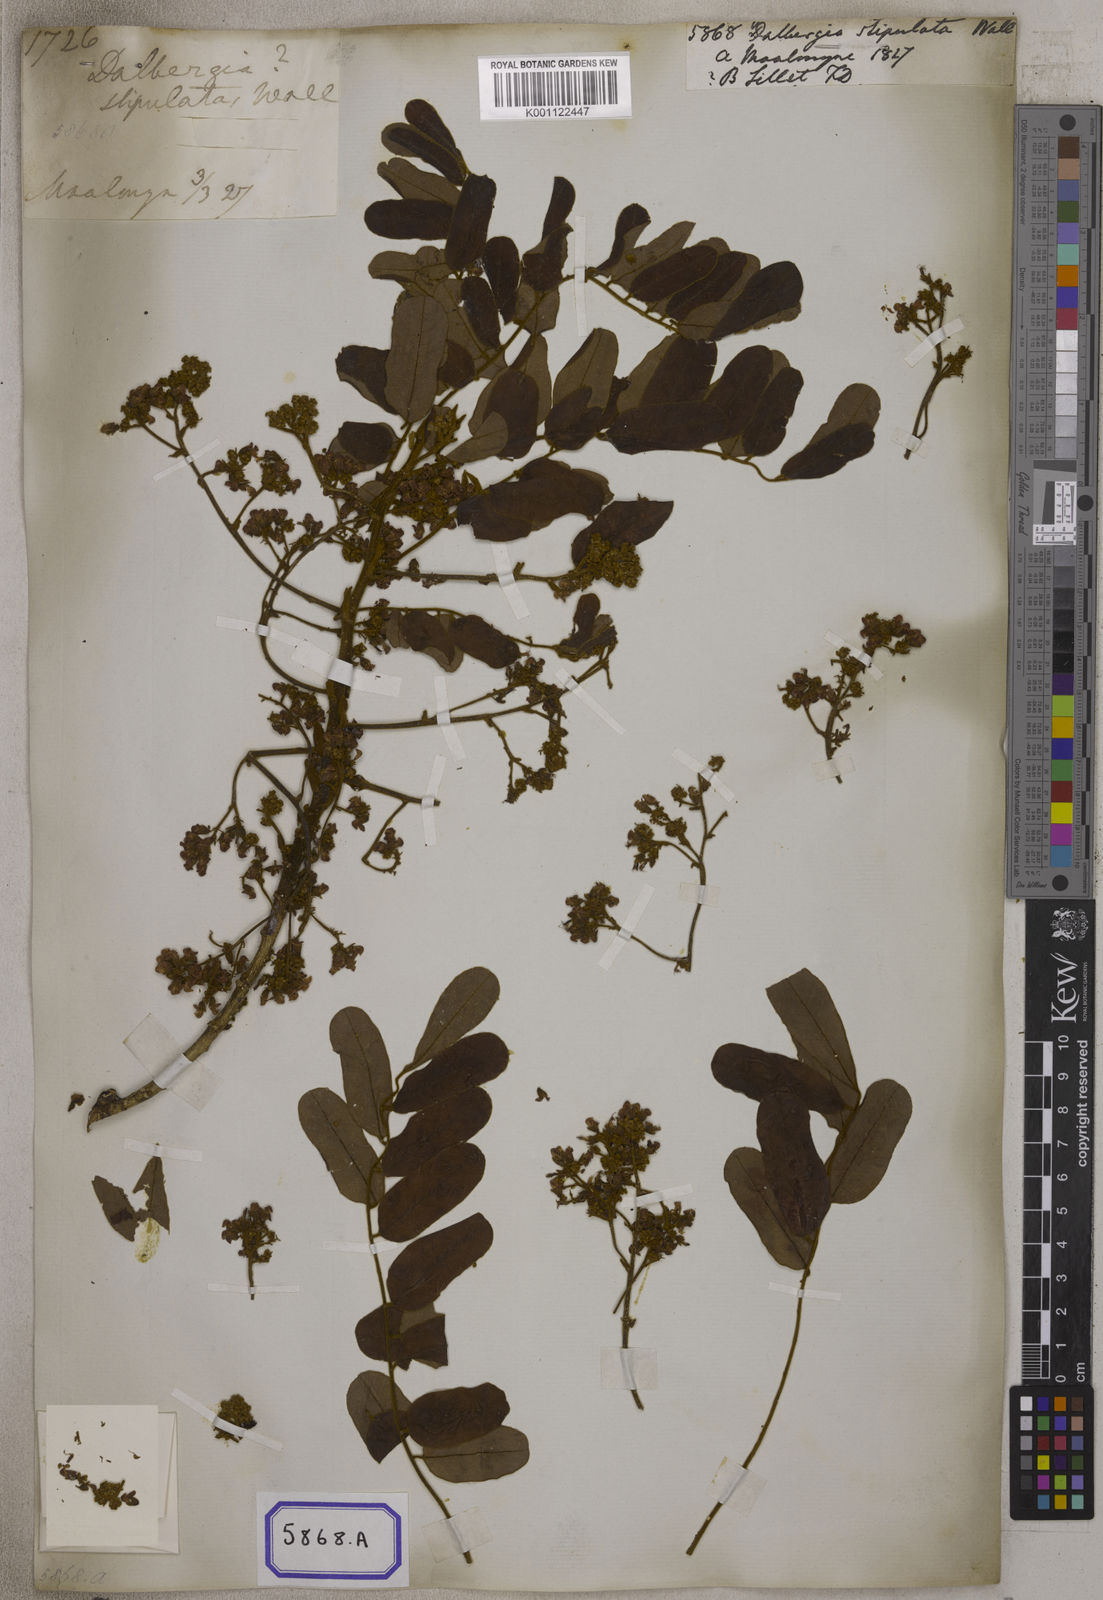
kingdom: Plantae
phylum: Tracheophyta
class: Magnoliopsida
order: Fabales
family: Fabaceae
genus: Dalbergia
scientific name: Dalbergia
